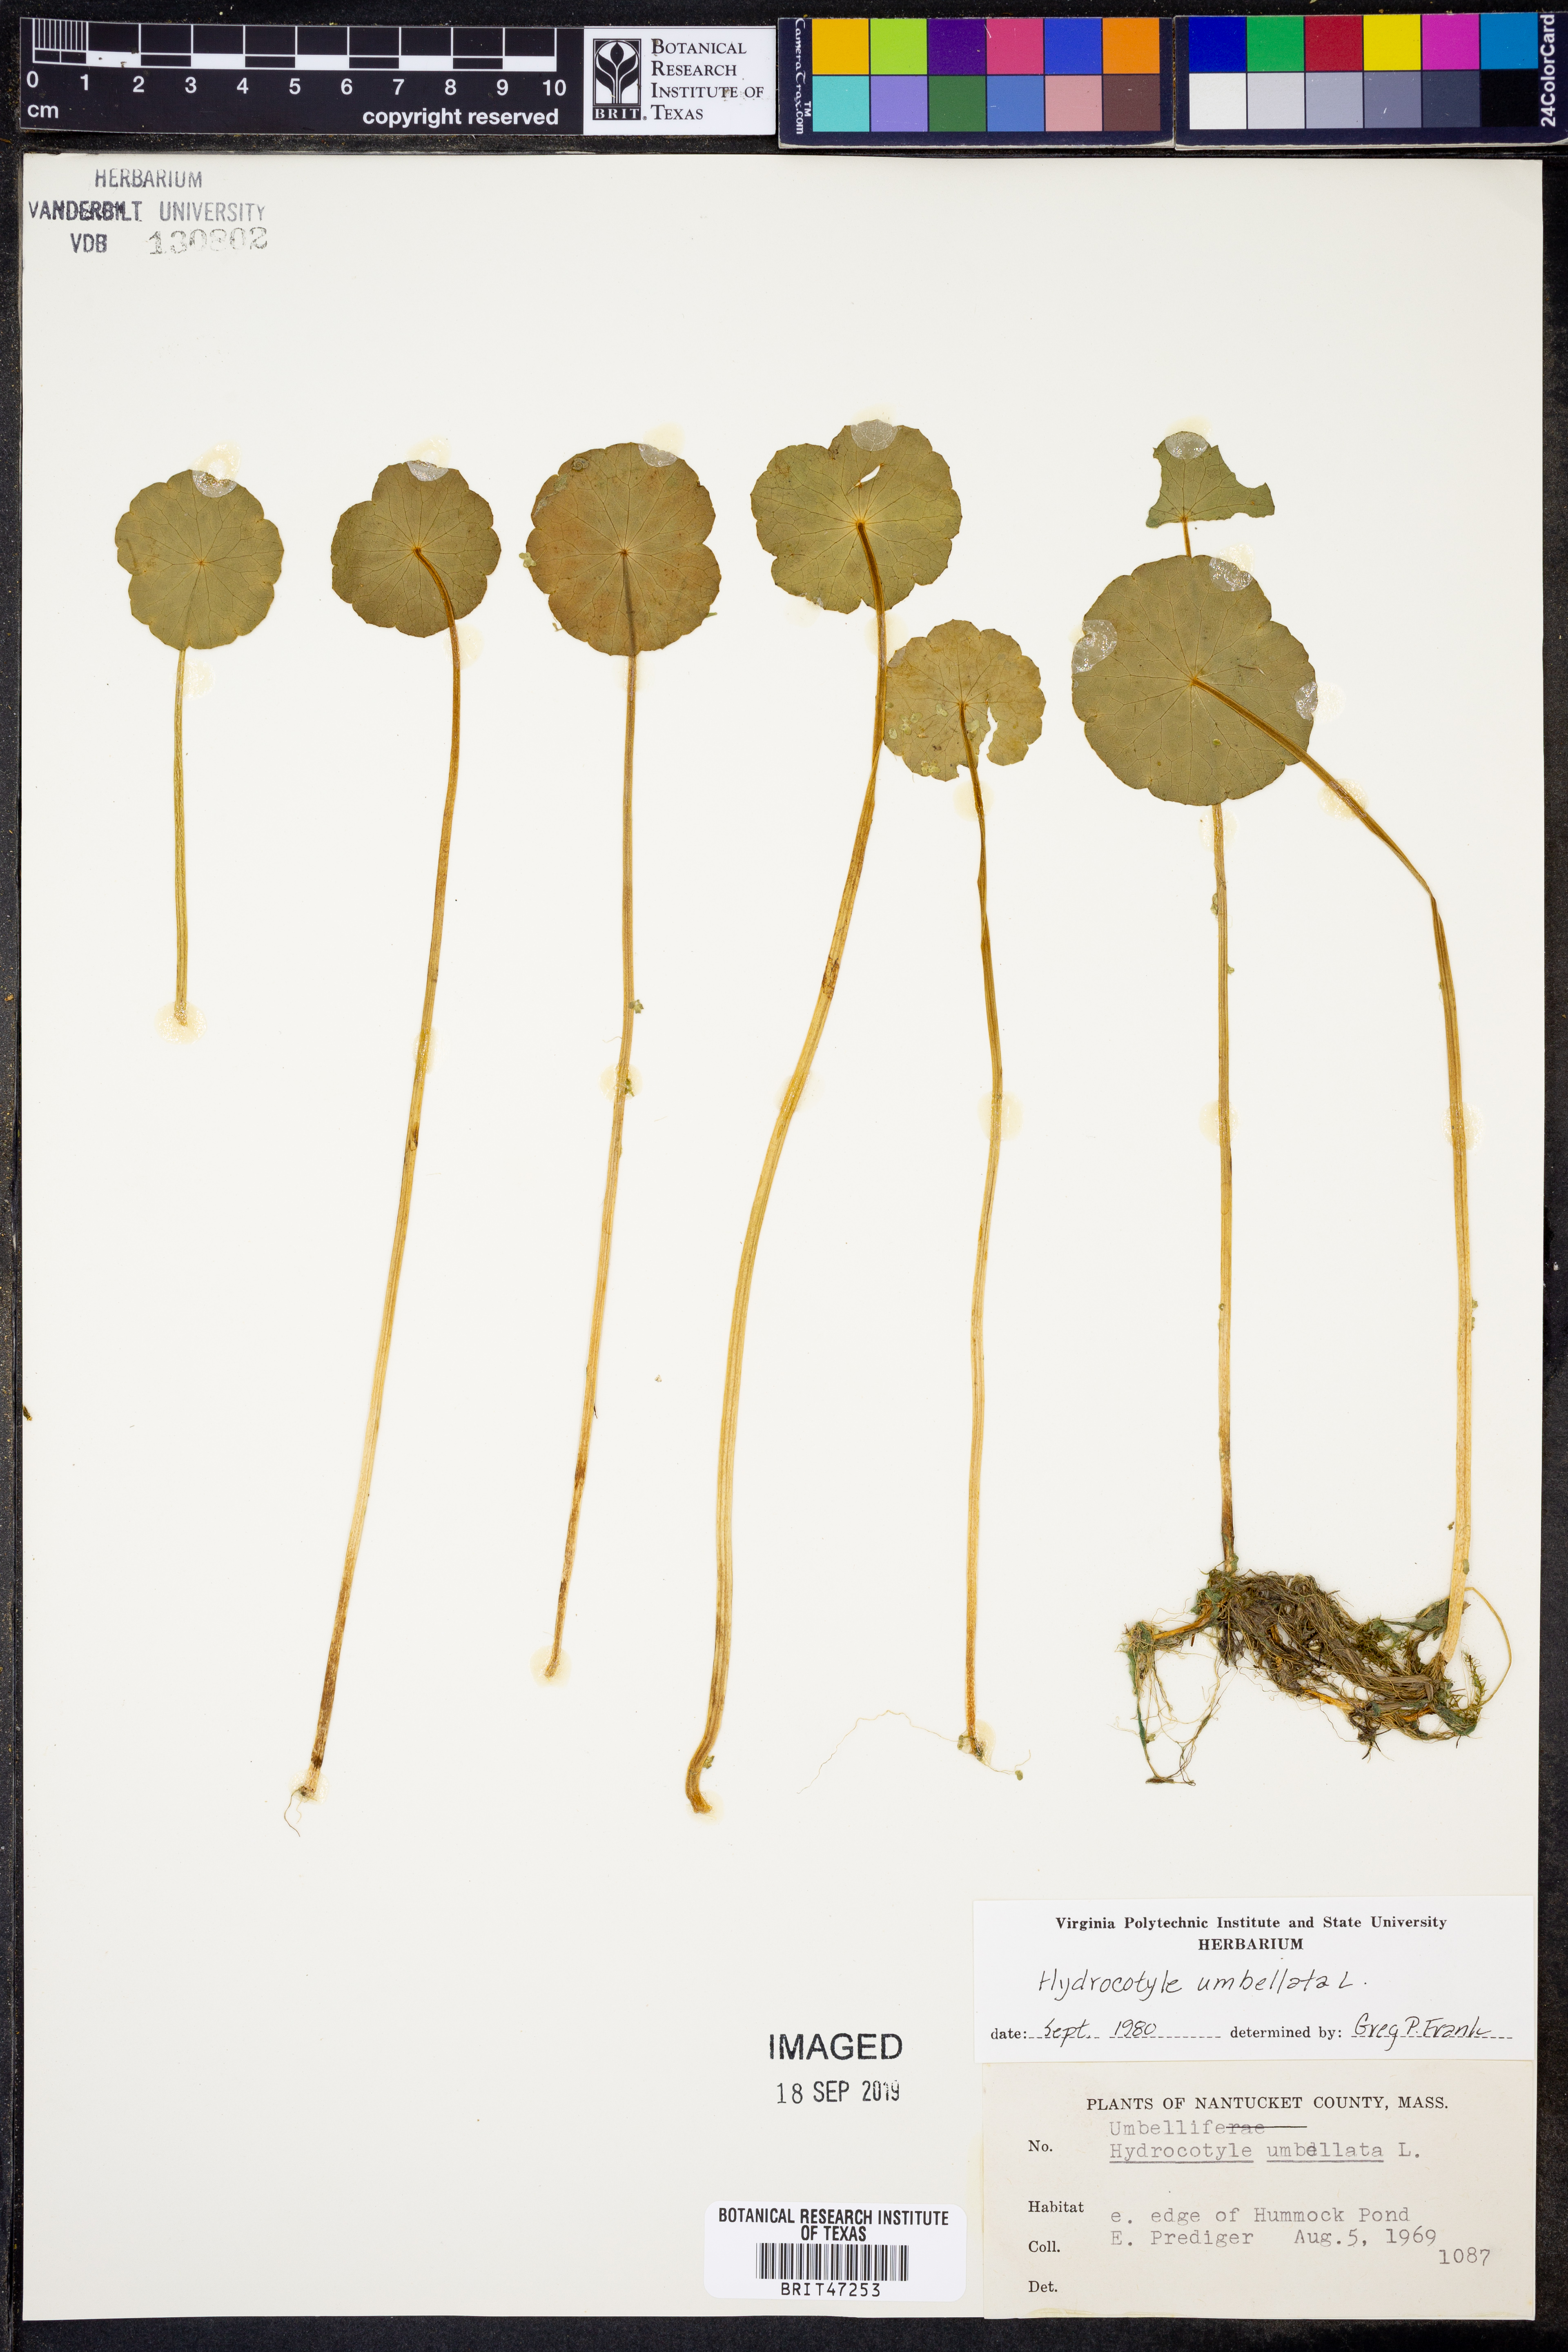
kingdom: Plantae
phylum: Tracheophyta
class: Magnoliopsida
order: Apiales
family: Araliaceae
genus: Hydrocotyle
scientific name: Hydrocotyle umbellata
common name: Water pennywort
